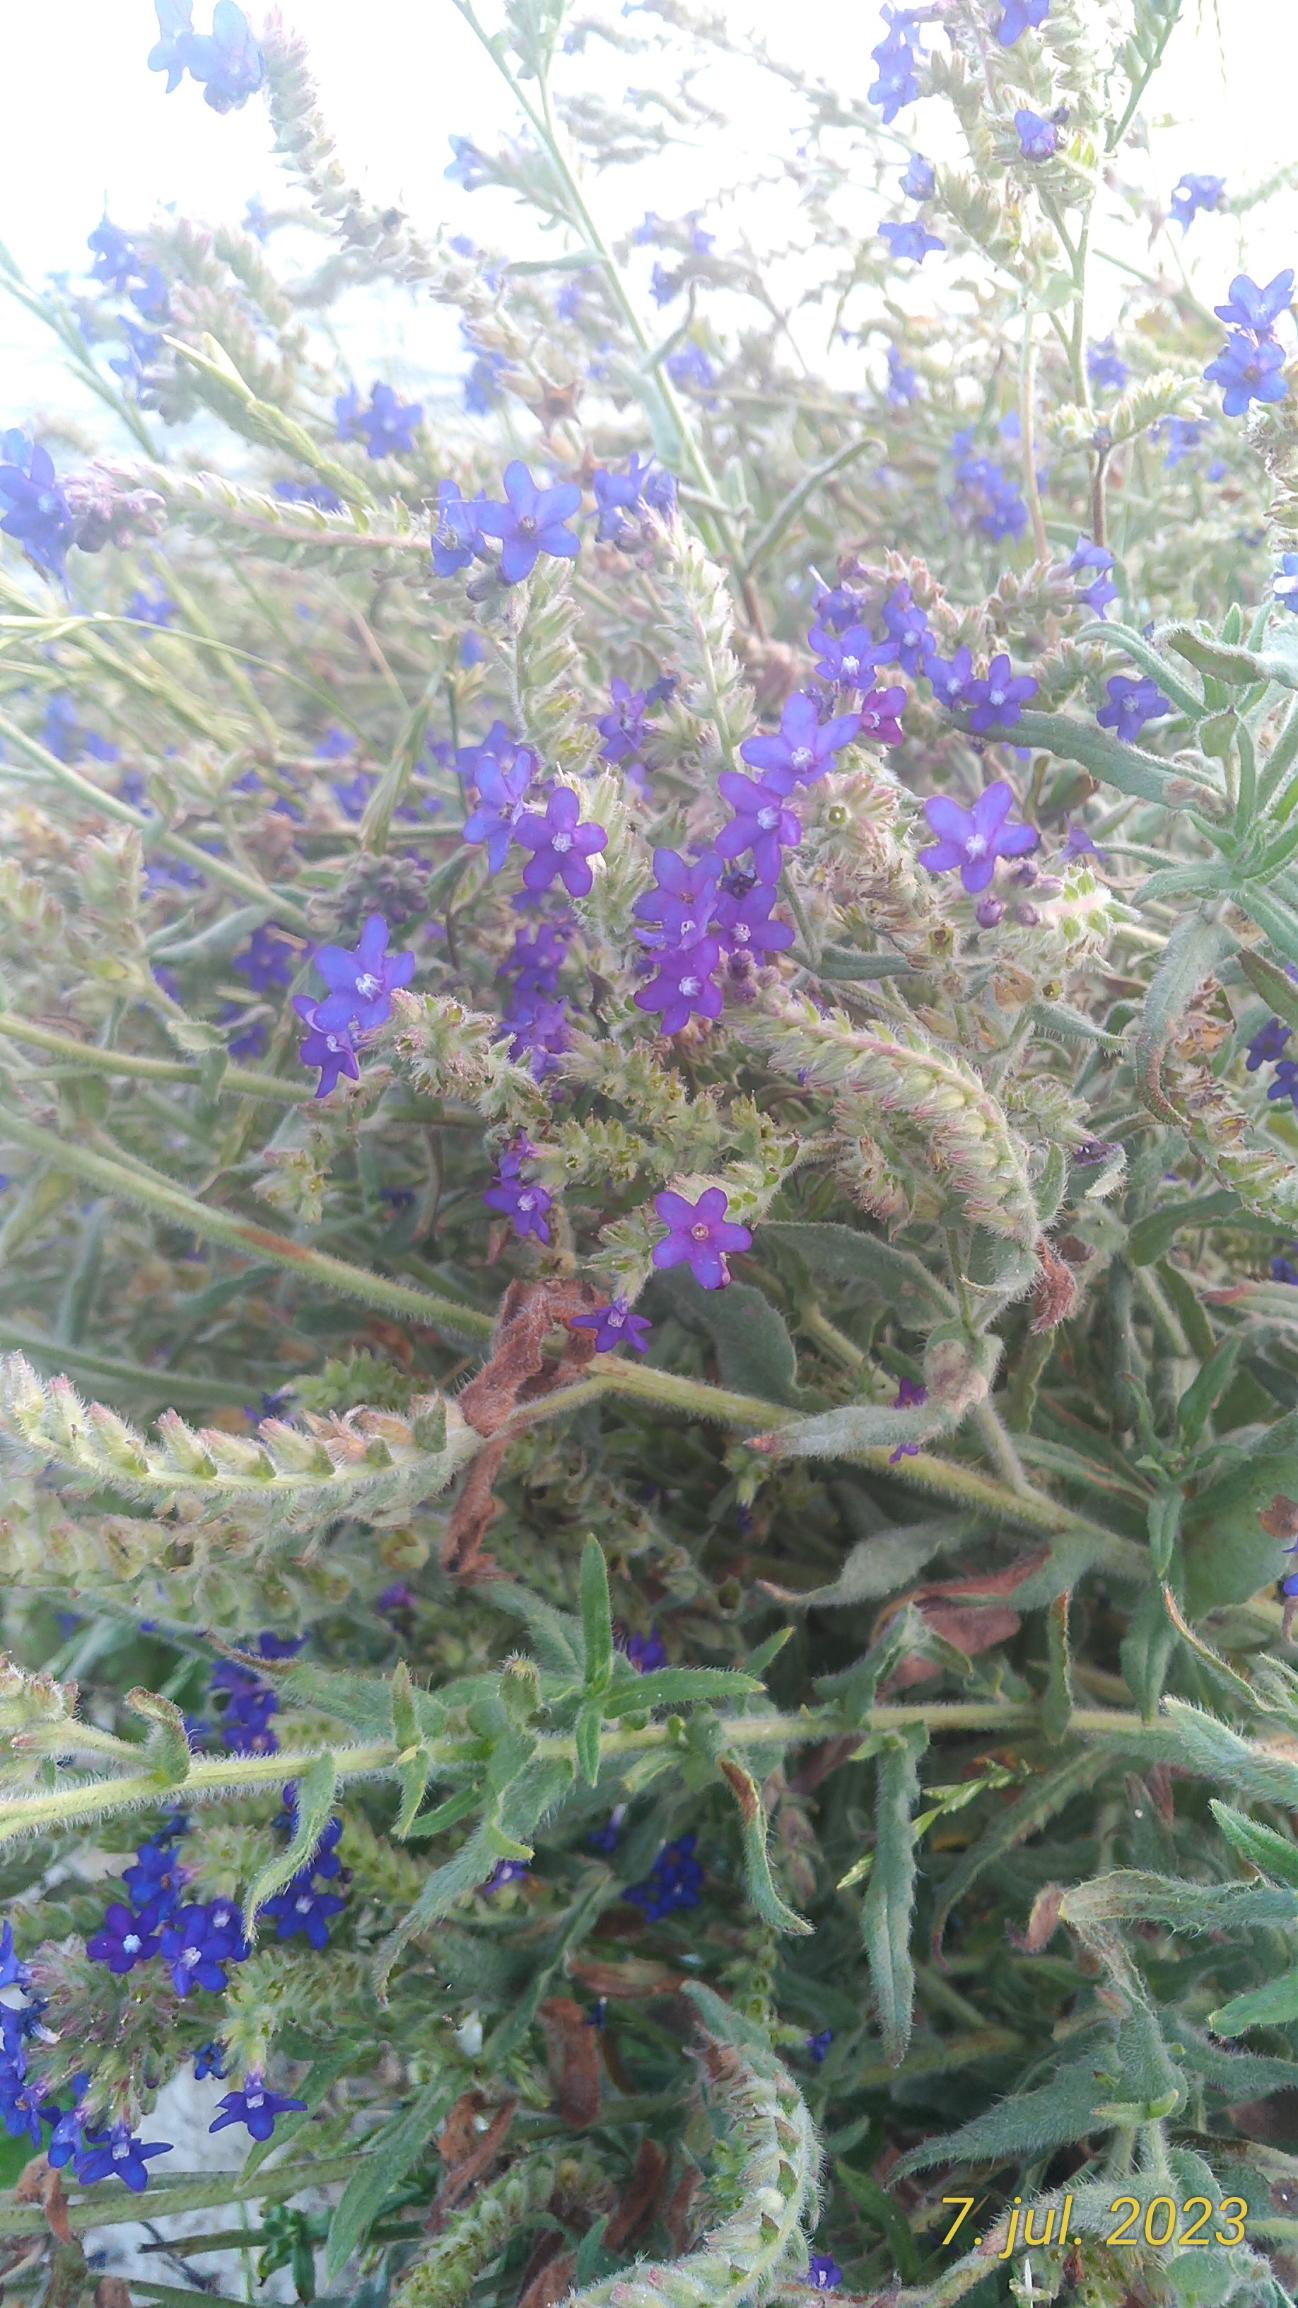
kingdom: Plantae
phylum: Tracheophyta
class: Magnoliopsida
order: Boraginales
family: Boraginaceae
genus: Anchusa
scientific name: Anchusa officinalis
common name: Læge-oksetunge
